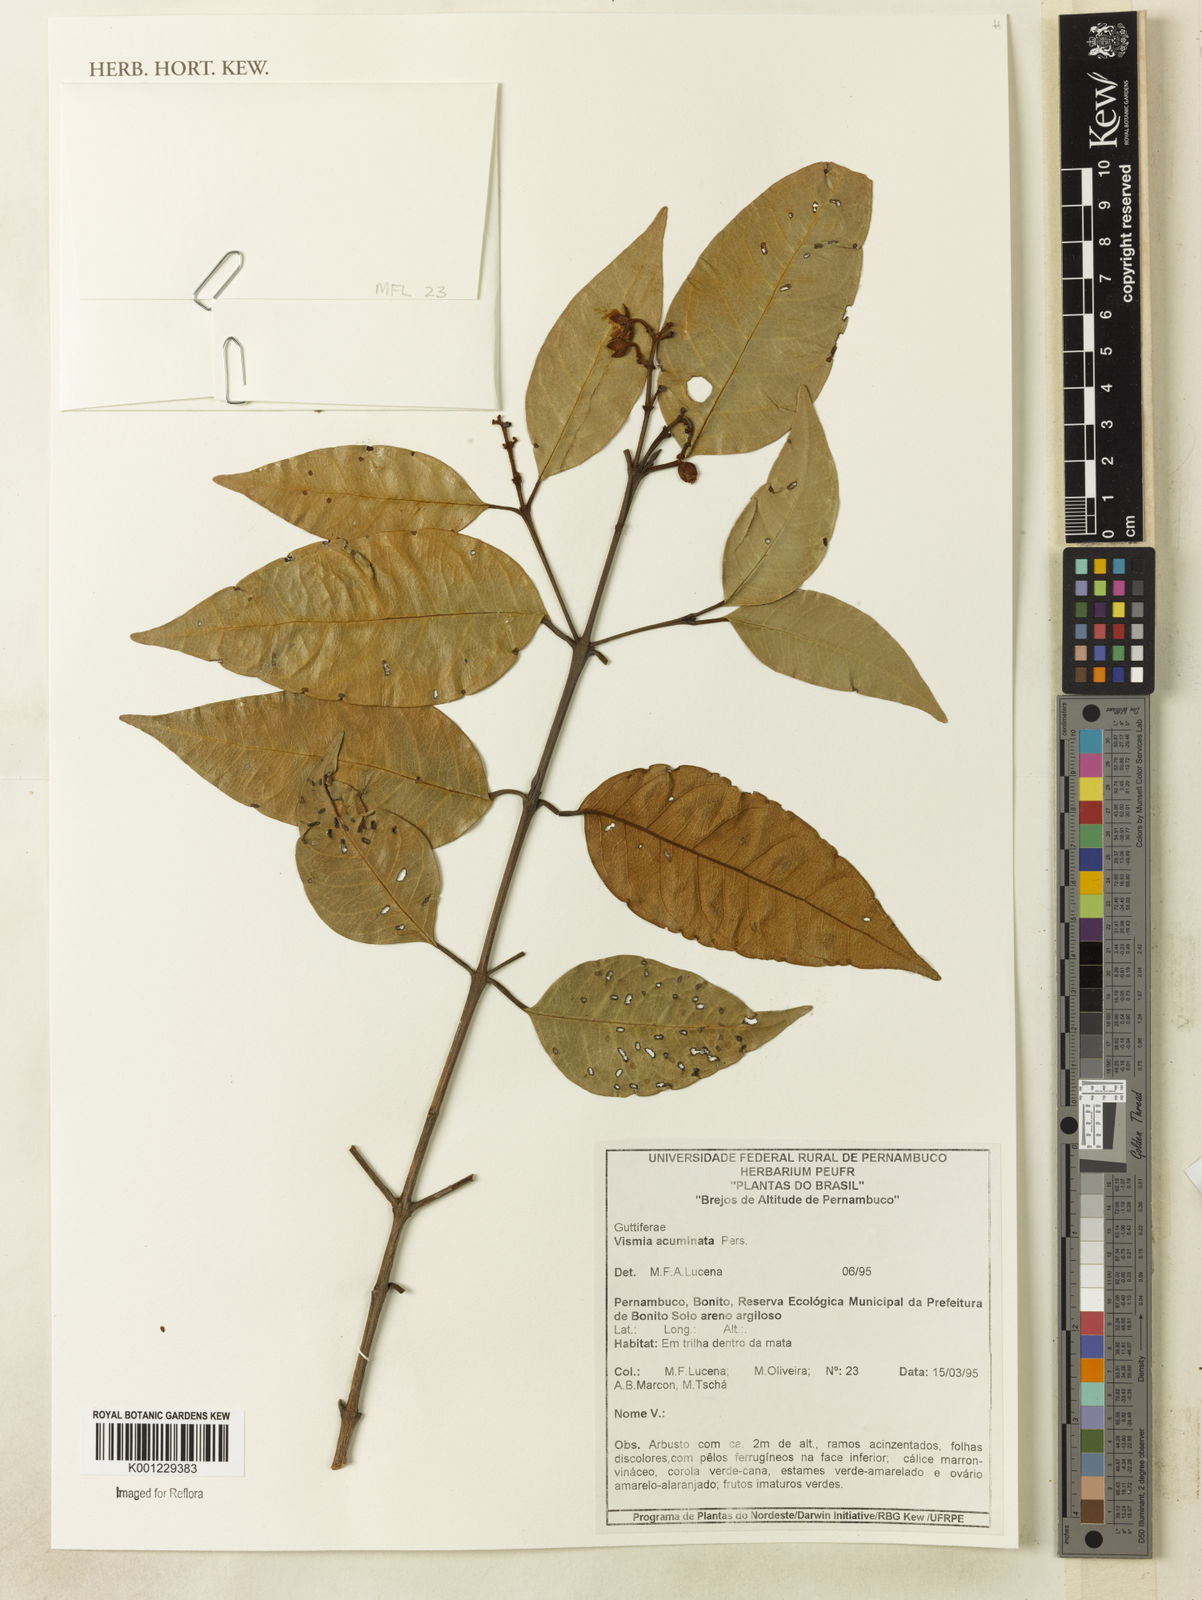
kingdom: Plantae
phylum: Tracheophyta
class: Magnoliopsida
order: Malpighiales
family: Hypericaceae
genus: Vismia
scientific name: Vismia guianensis
